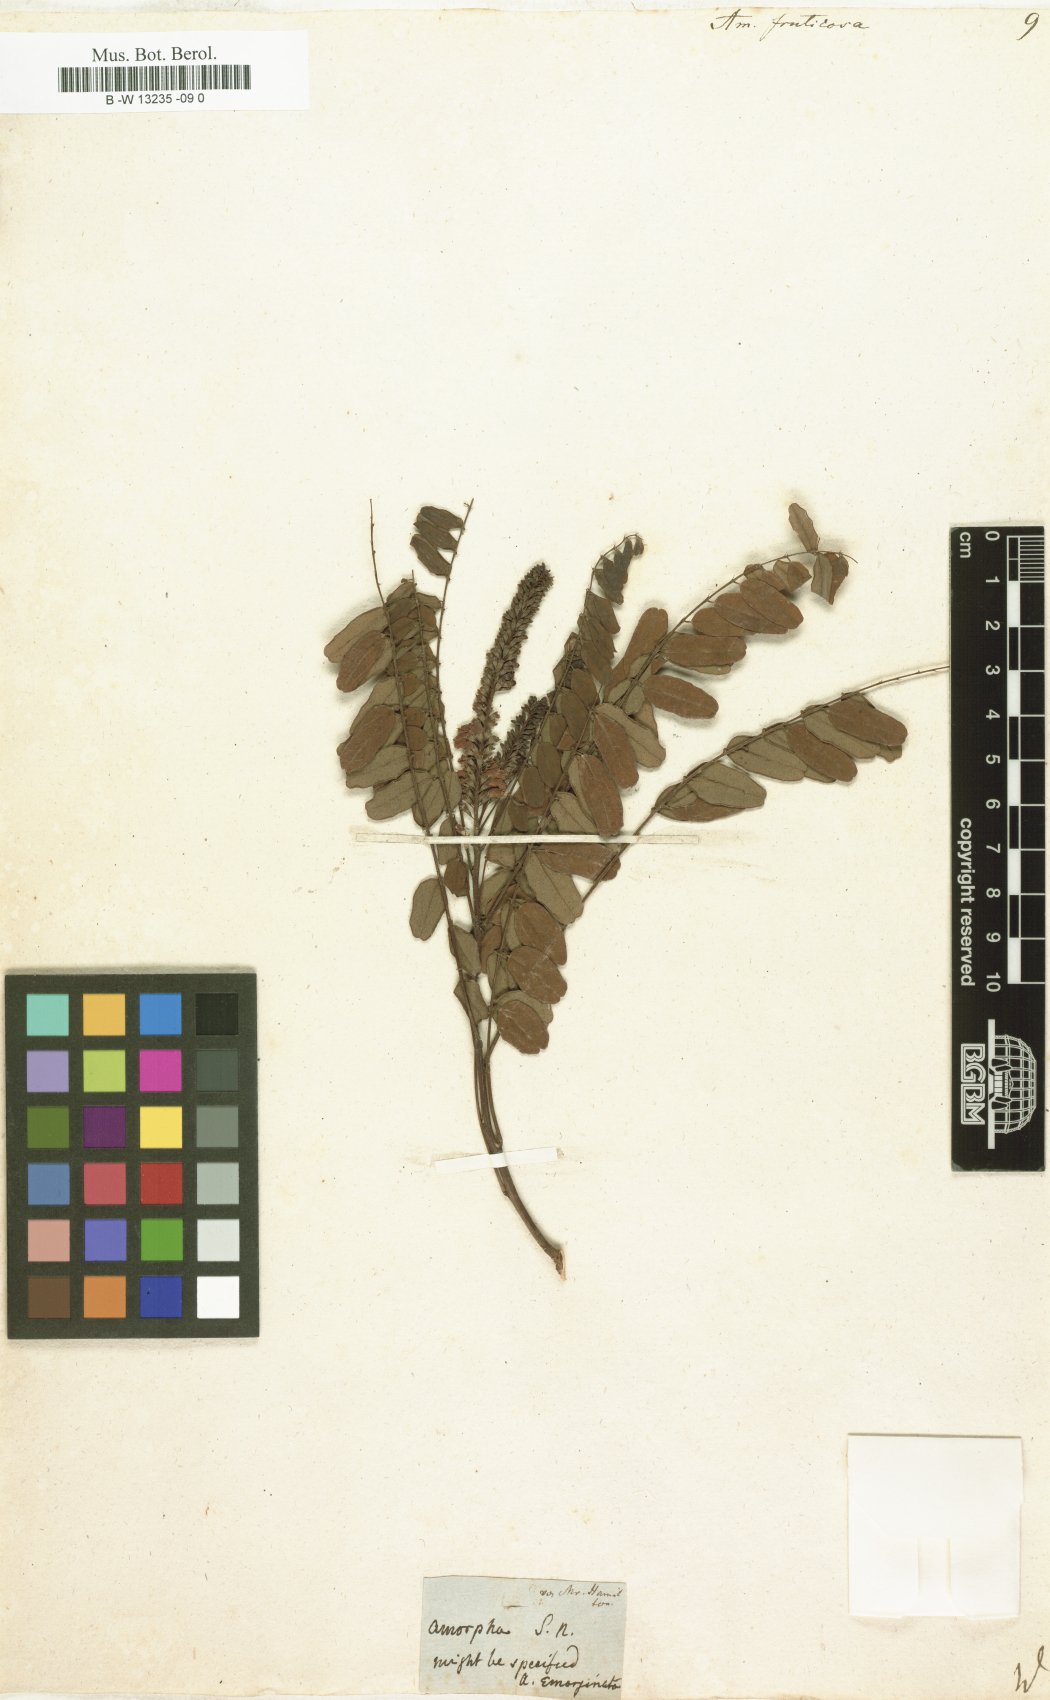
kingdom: Plantae
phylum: Tracheophyta
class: Magnoliopsida
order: Fabales
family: Fabaceae
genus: Amorpha
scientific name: Amorpha fruticosa
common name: False indigo
